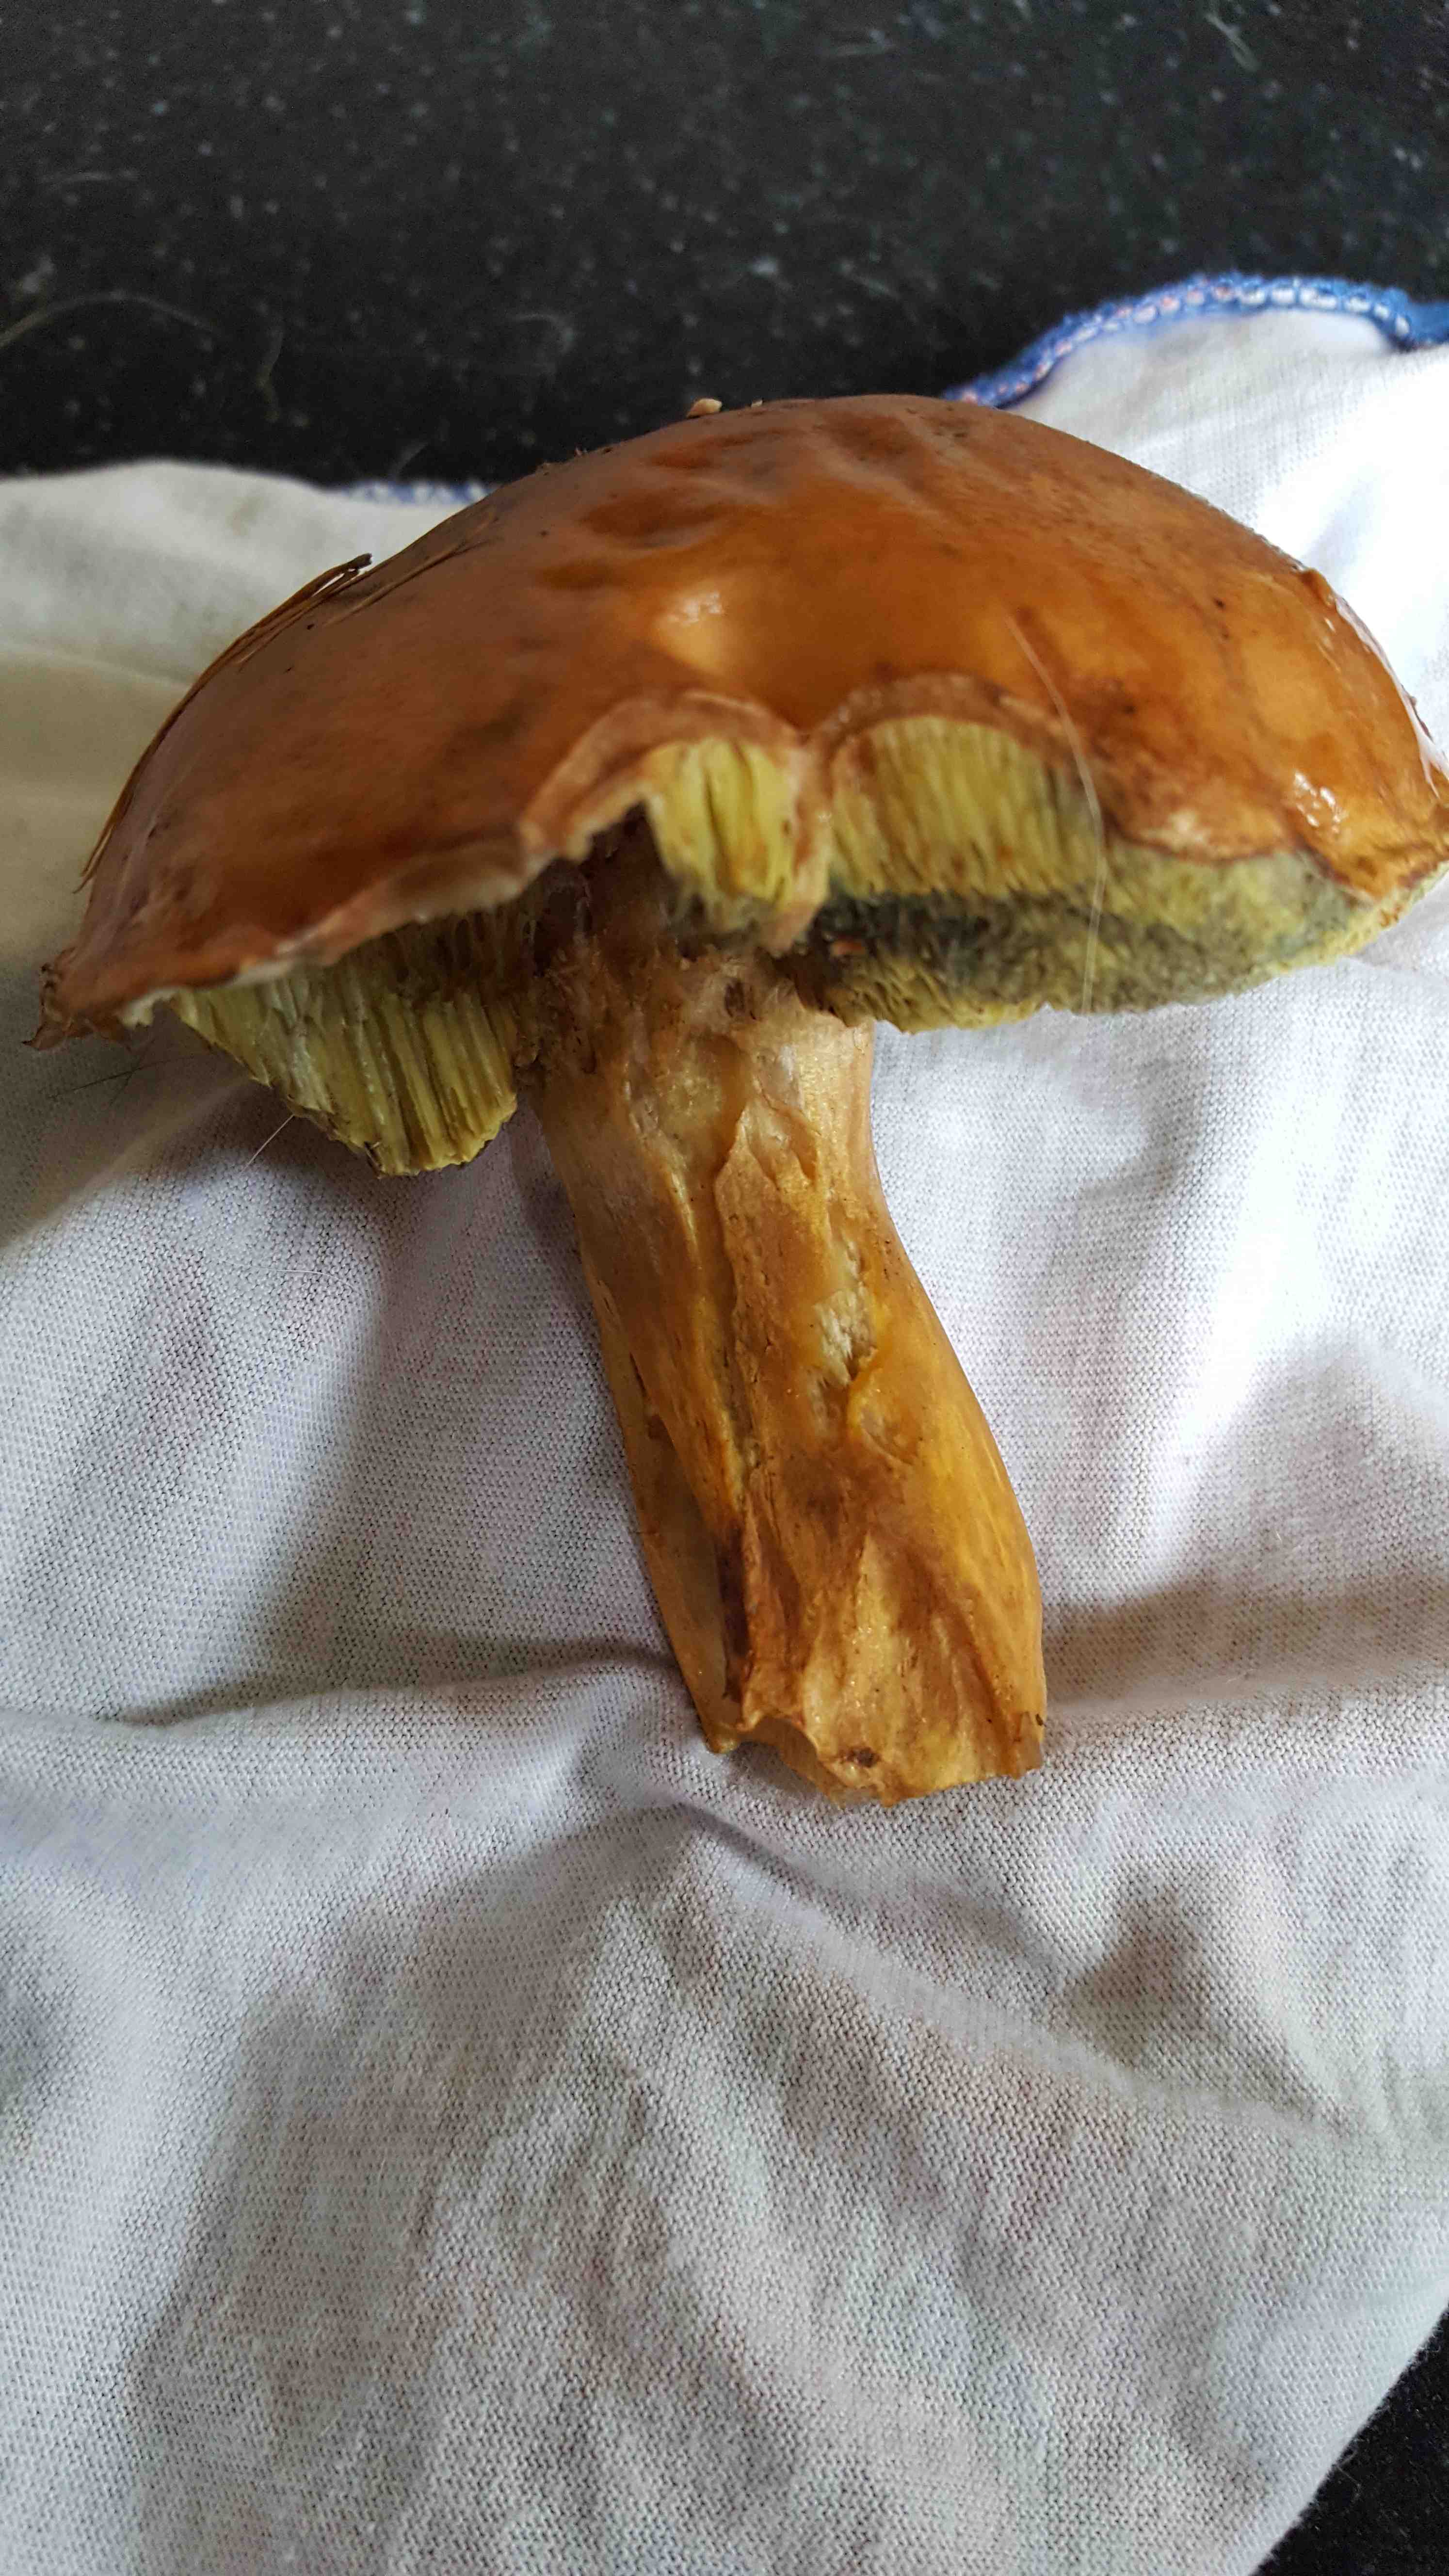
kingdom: Fungi
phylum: Basidiomycota
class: Agaricomycetes
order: Boletales
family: Boletaceae
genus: Imleria
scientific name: Imleria badia
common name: brunstokket rørhat
